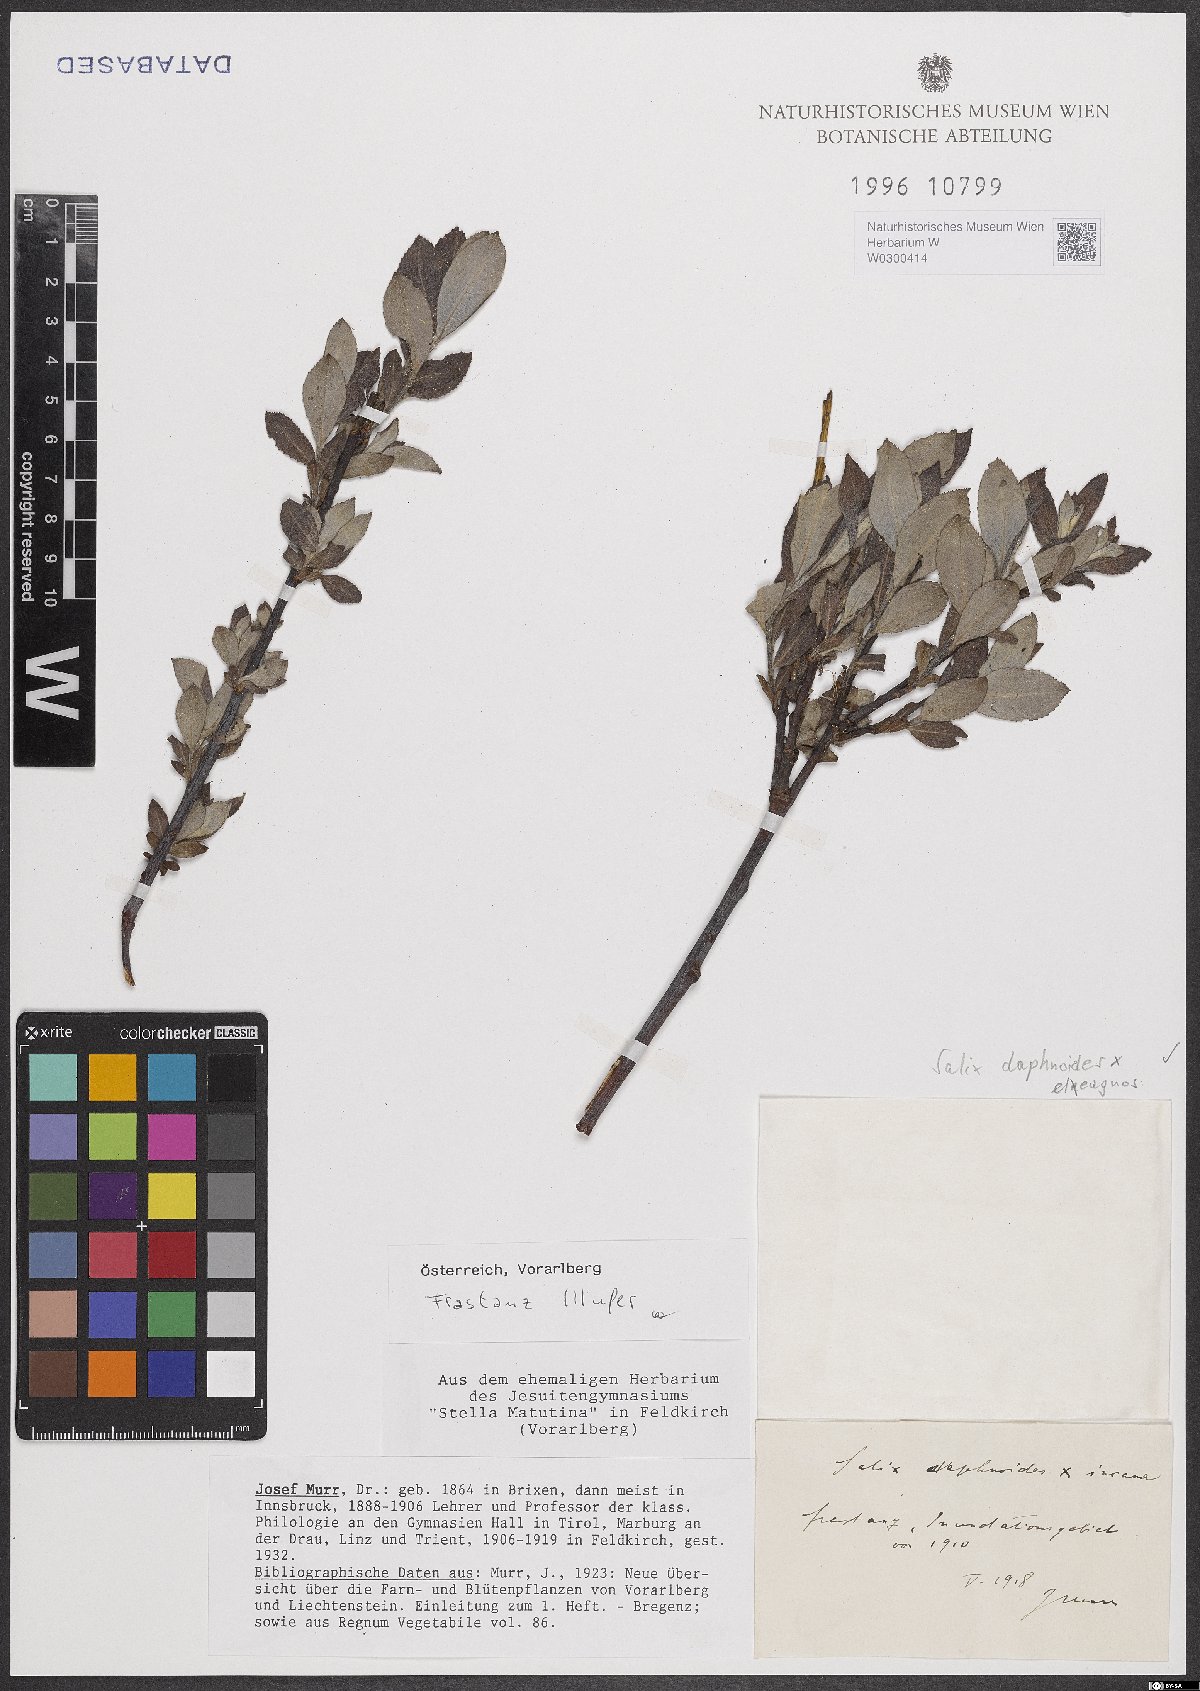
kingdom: Plantae
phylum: Tracheophyta
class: Magnoliopsida
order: Malpighiales
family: Salicaceae
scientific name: Salicaceae
